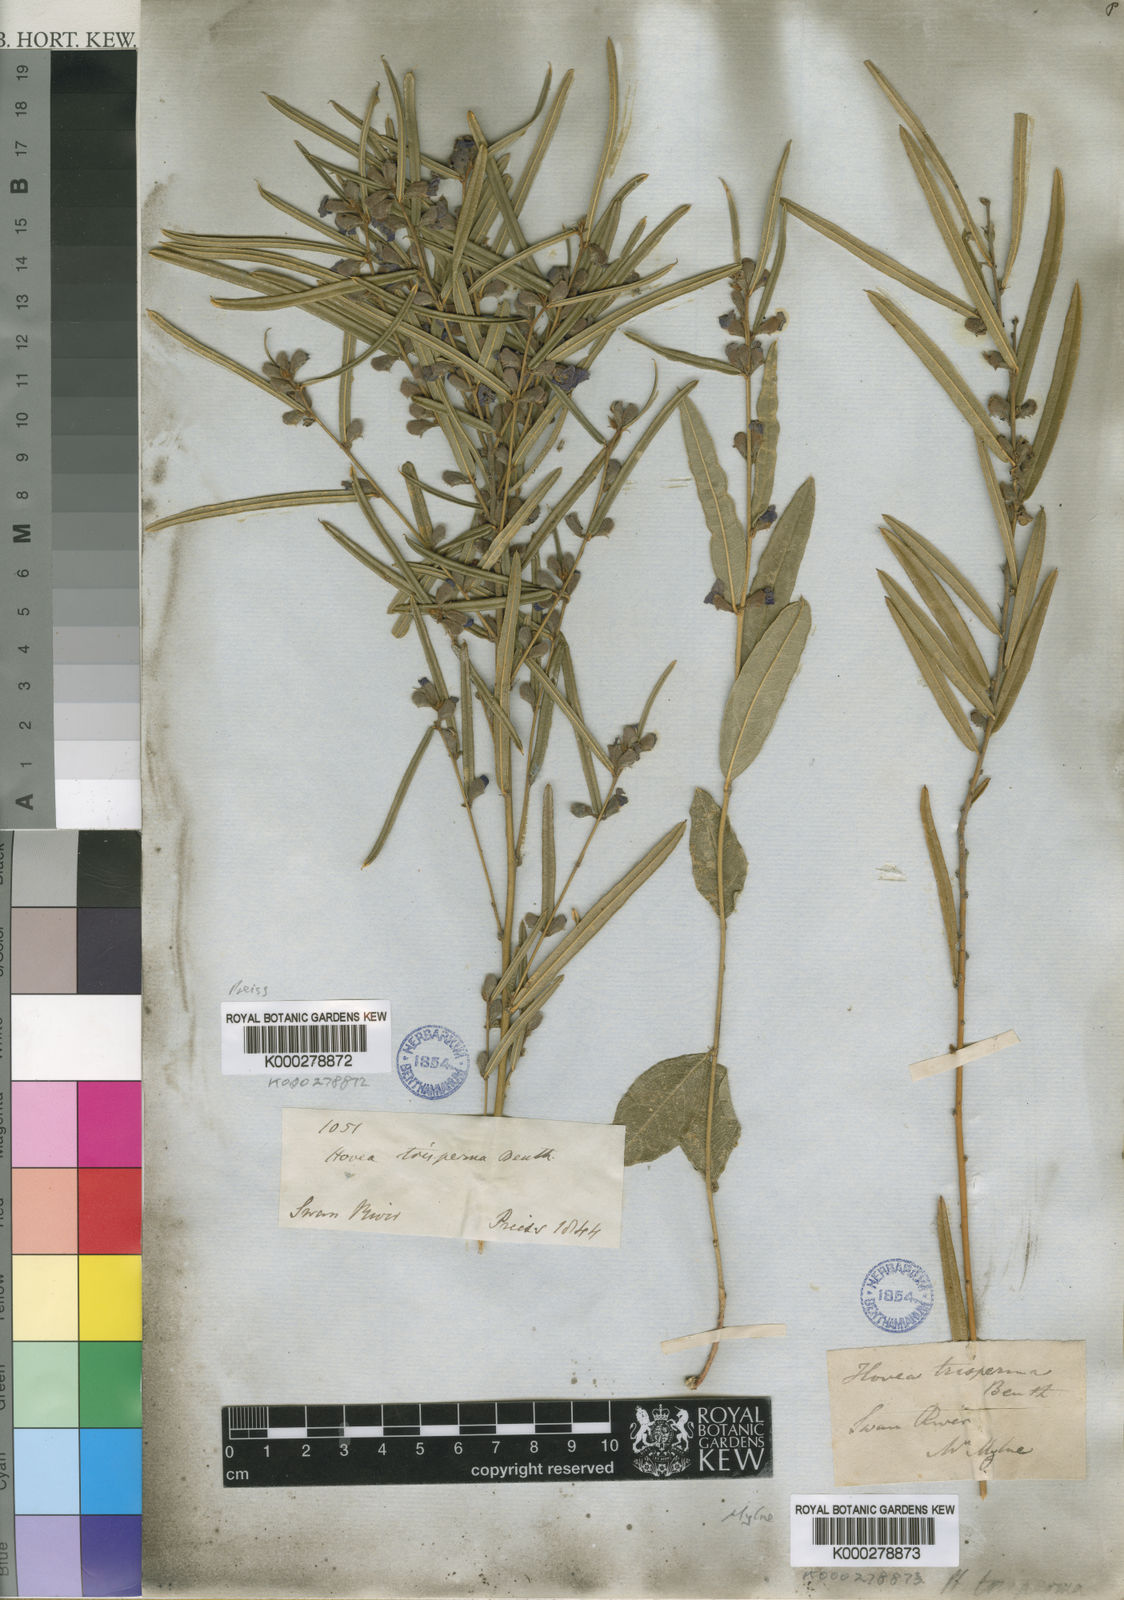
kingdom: Plantae
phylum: Tracheophyta
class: Magnoliopsida
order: Fabales
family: Fabaceae
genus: Hovea
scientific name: Hovea trisperma
